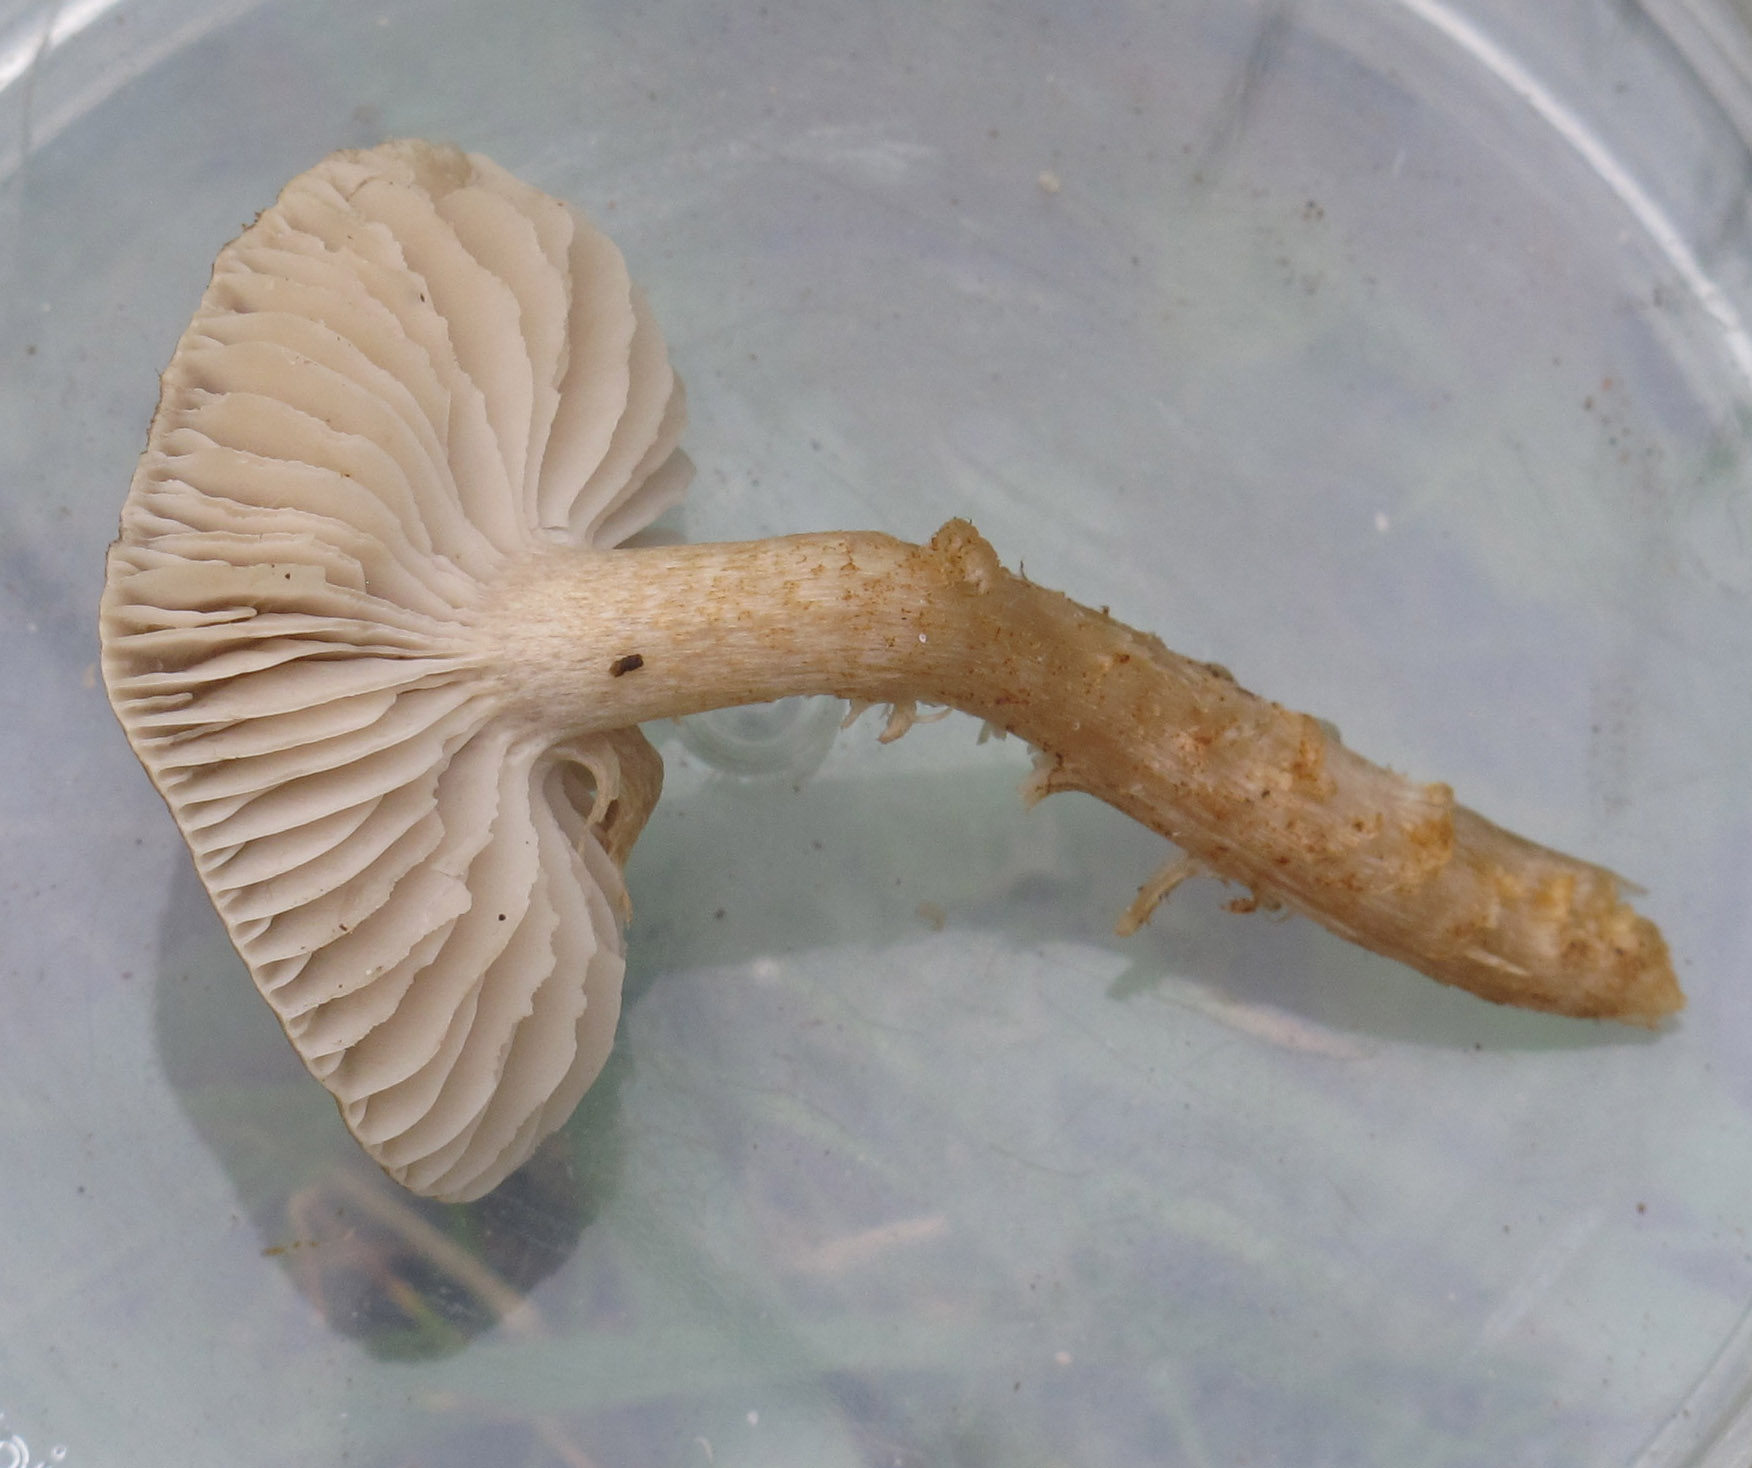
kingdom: Fungi
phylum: Basidiomycota
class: Agaricomycetes
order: Agaricales
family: Tricholomataceae
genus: Dermoloma
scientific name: Dermoloma cuneifolium
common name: eng-nonnehat
